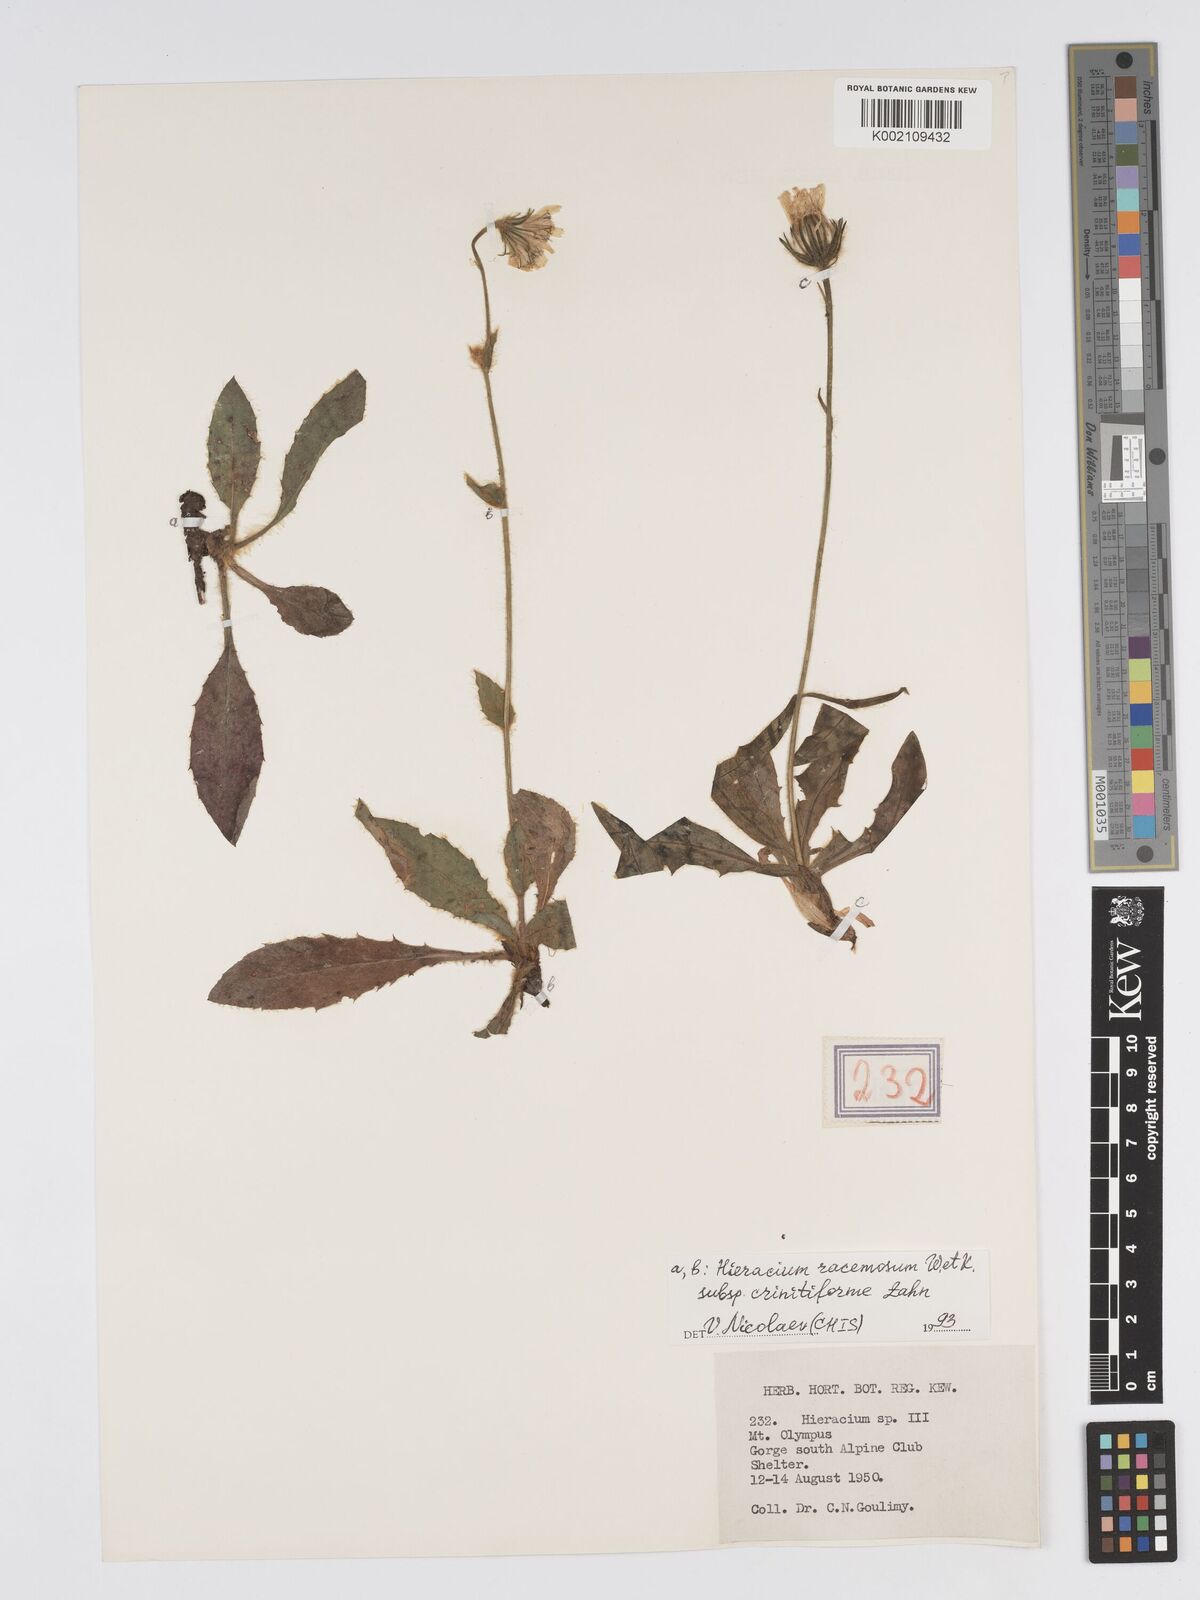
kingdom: Plantae
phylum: Tracheophyta
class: Magnoliopsida
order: Asterales
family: Asteraceae
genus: Hieracium
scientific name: Hieracium racemosum
